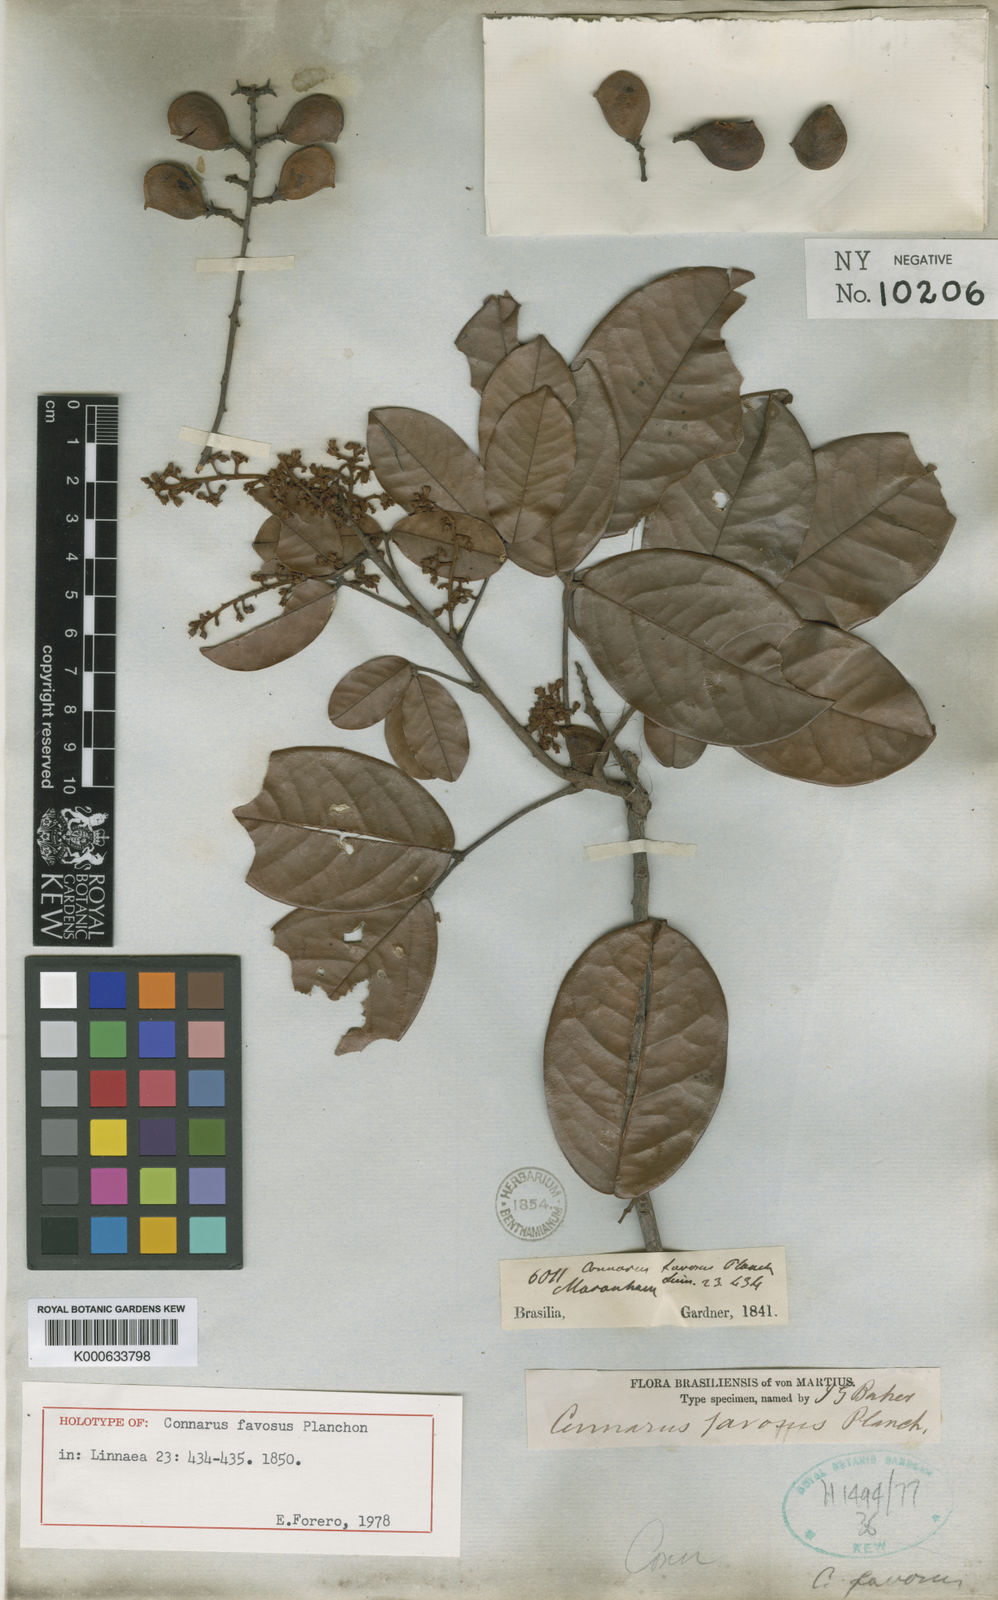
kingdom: Plantae
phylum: Tracheophyta
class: Magnoliopsida
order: Oxalidales
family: Connaraceae
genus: Connarus
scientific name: Connarus favosus
